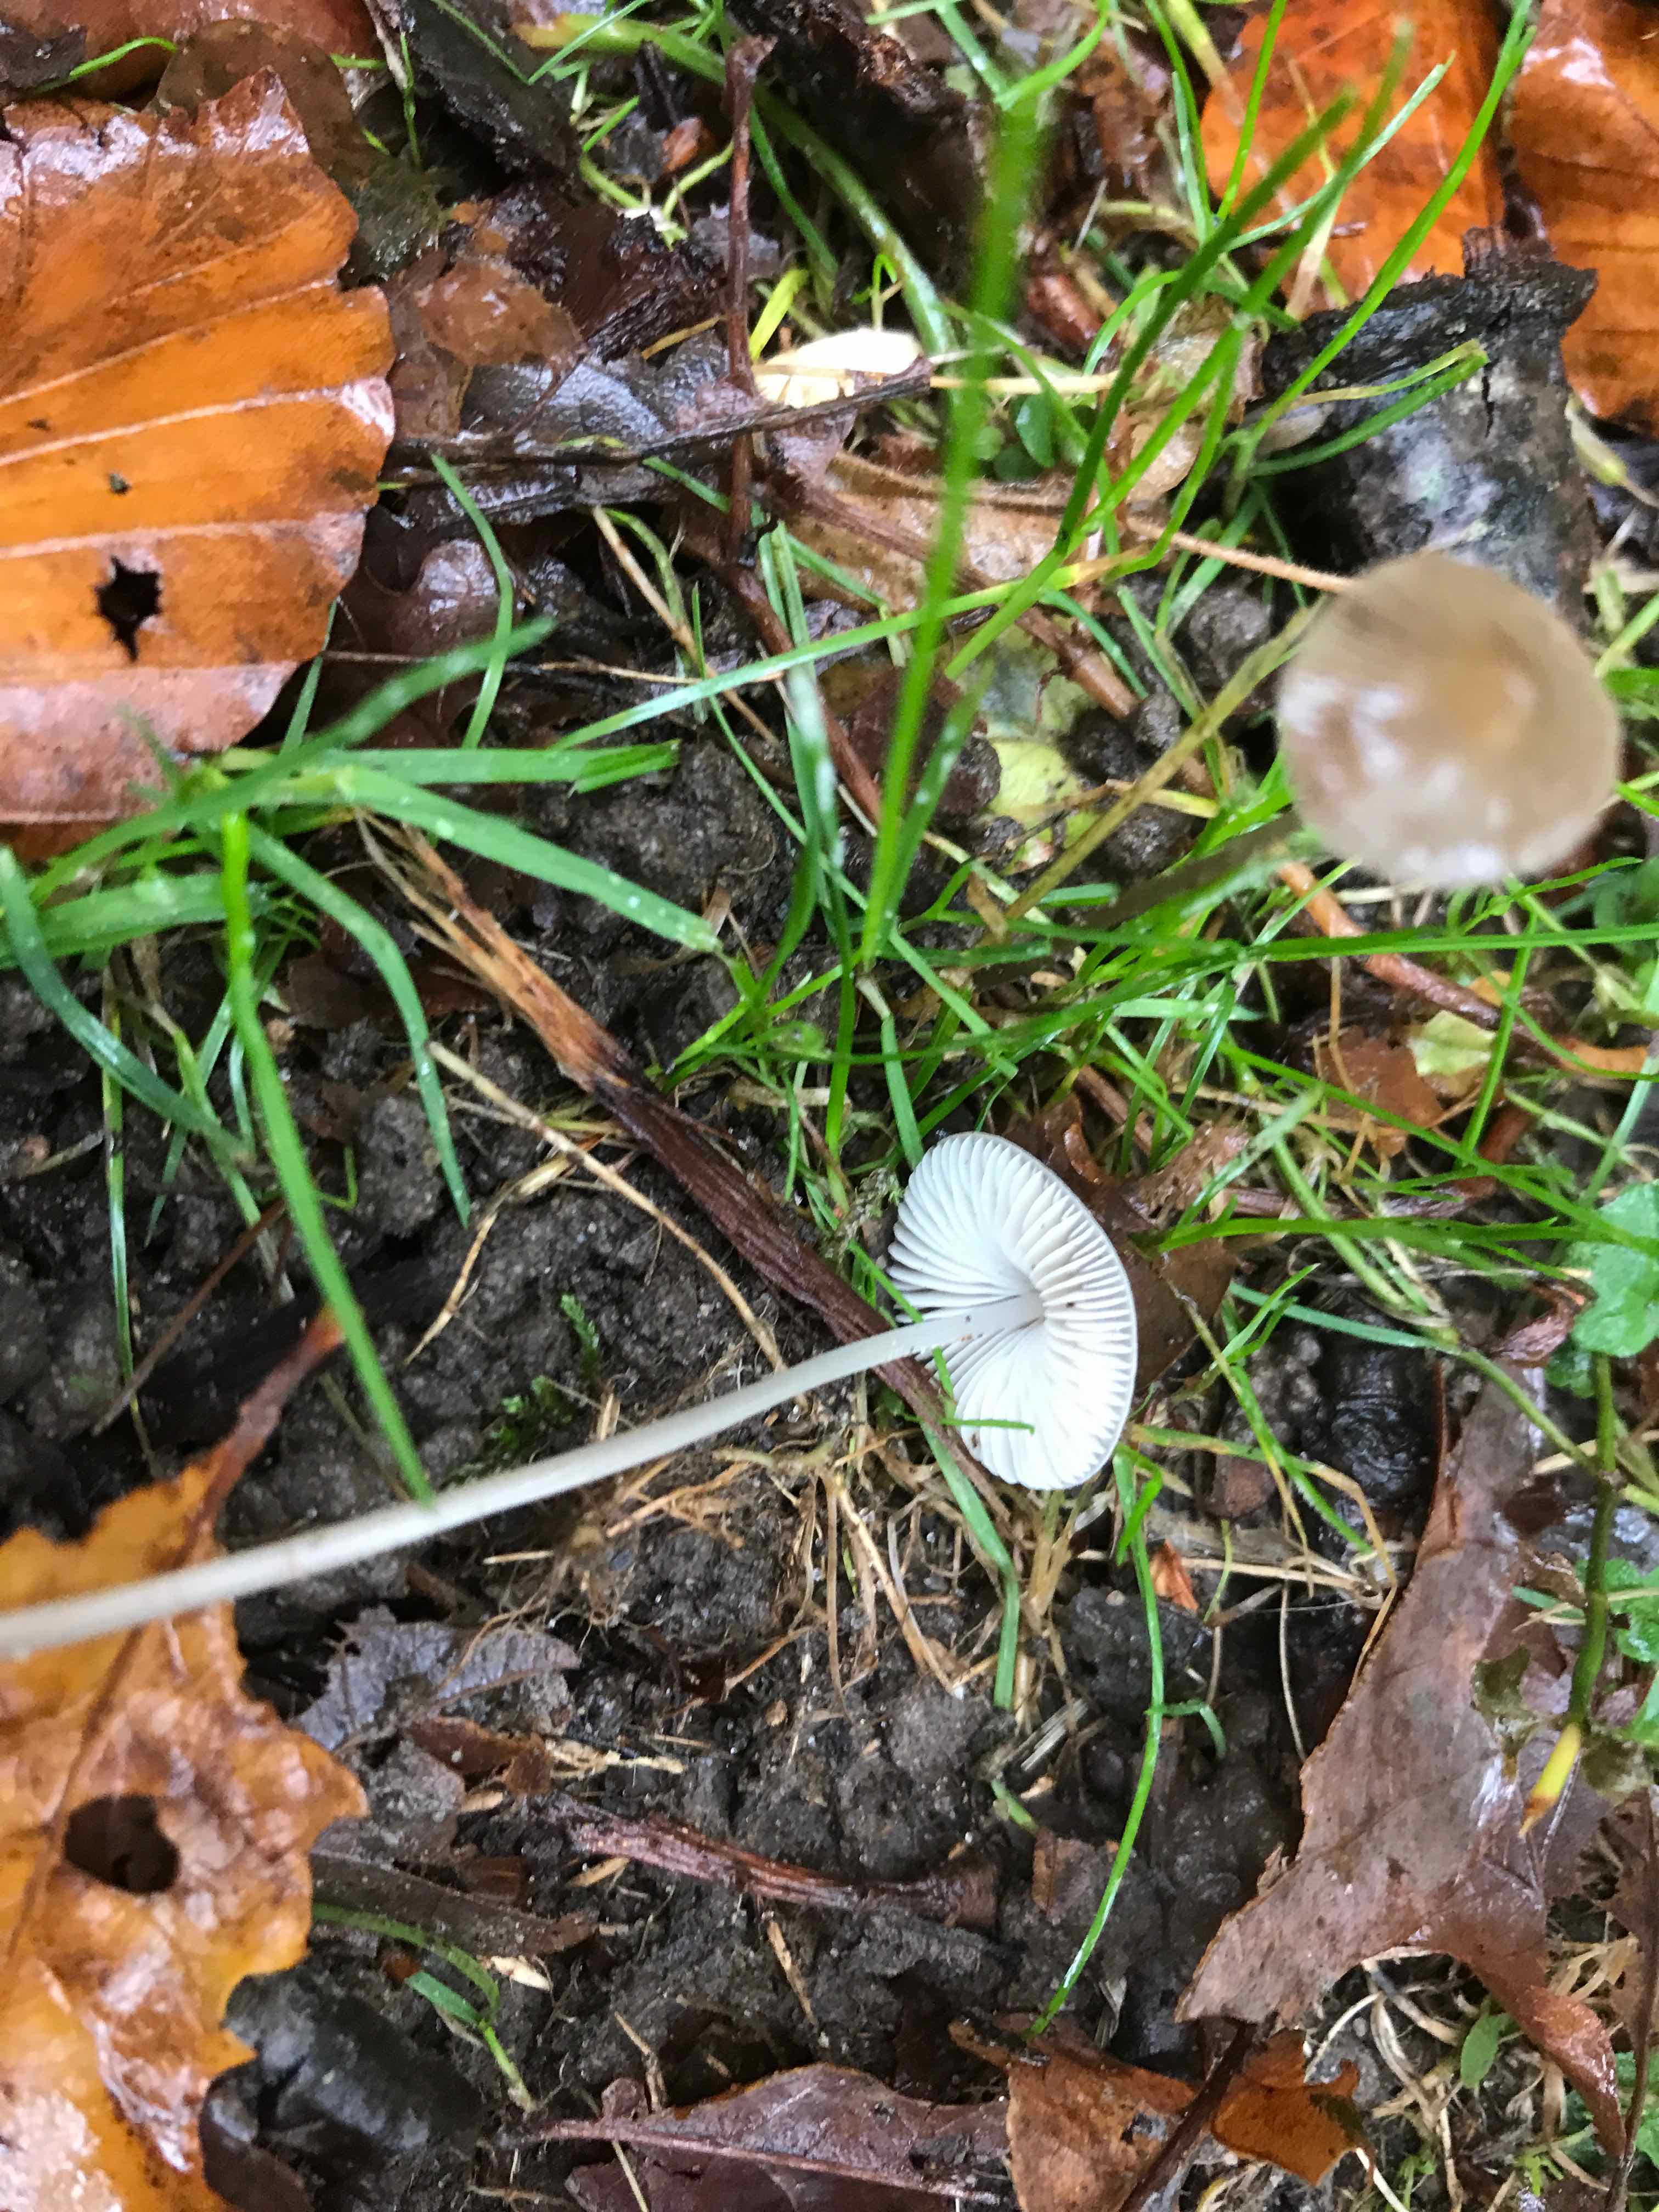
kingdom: Fungi
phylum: Basidiomycota
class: Agaricomycetes
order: Agaricales
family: Mycenaceae
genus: Mycena
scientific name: Mycena vitilis
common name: blankstokket huesvamp
